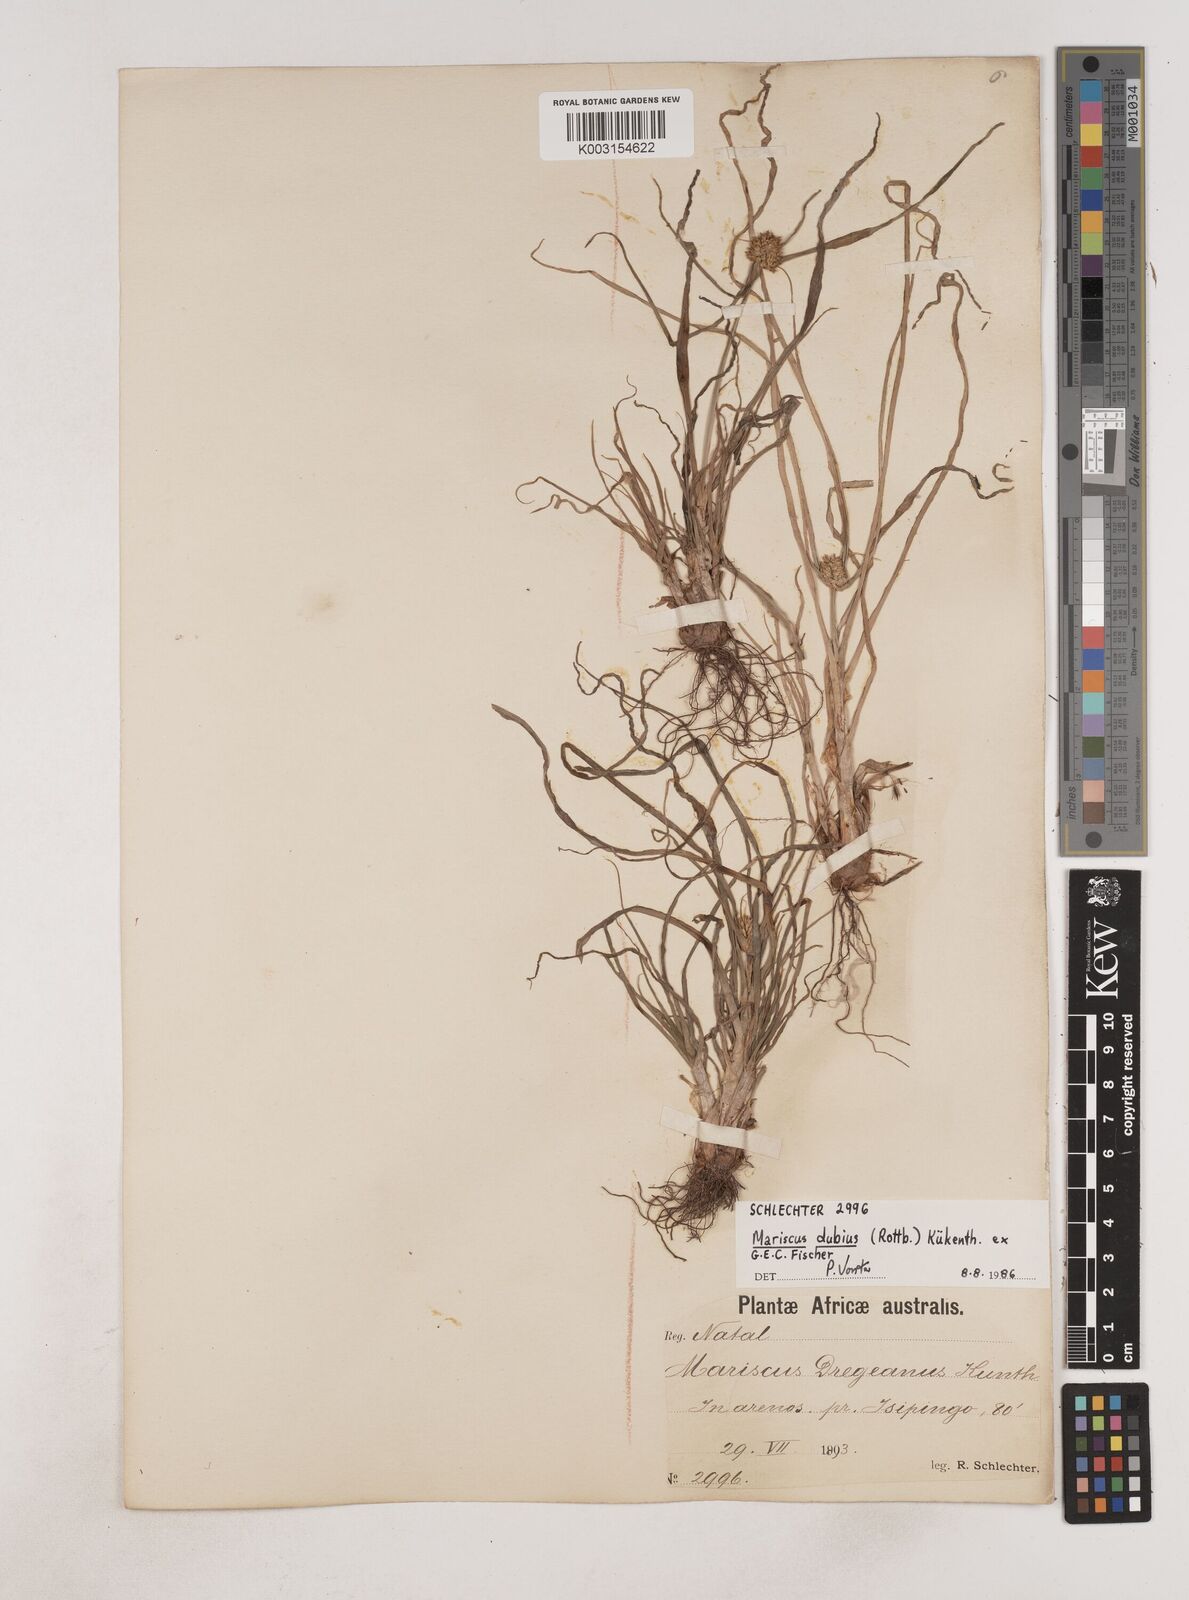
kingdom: Plantae
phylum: Tracheophyta
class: Liliopsida
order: Poales
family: Cyperaceae
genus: Cyperus
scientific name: Cyperus dubius
